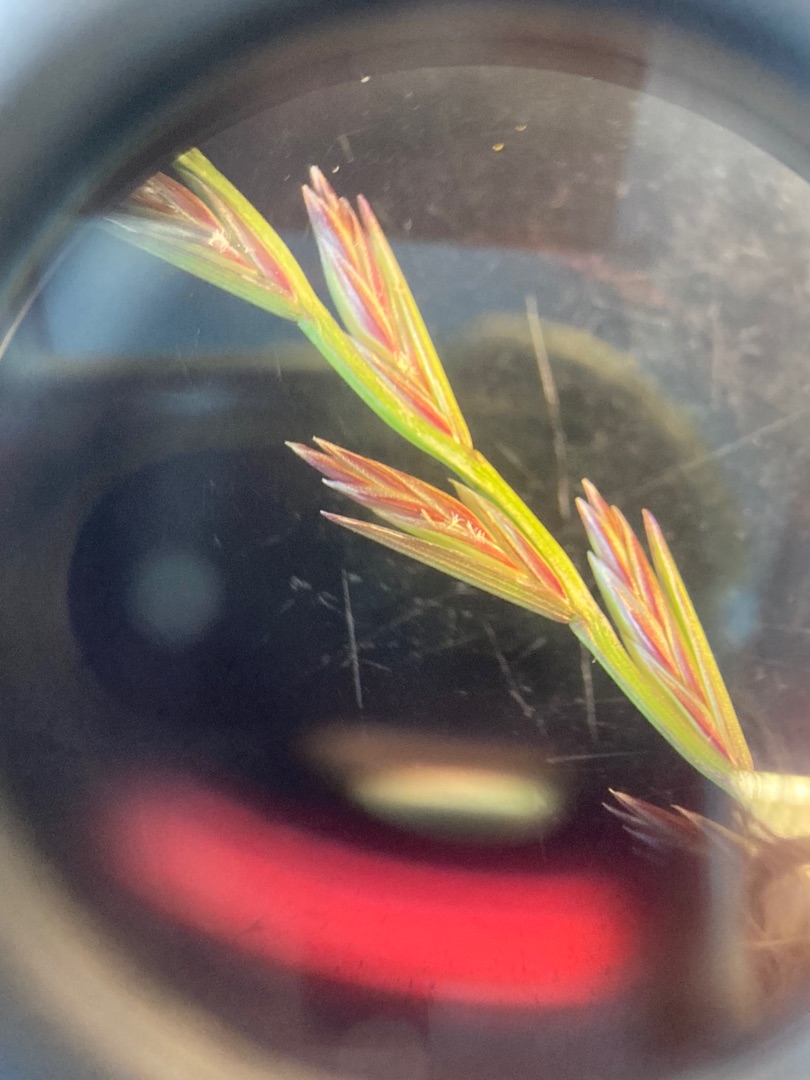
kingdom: Plantae
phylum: Tracheophyta
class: Liliopsida
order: Poales
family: Poaceae
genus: Lolium
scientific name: Lolium perenne
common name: Almindelig rajgræs
